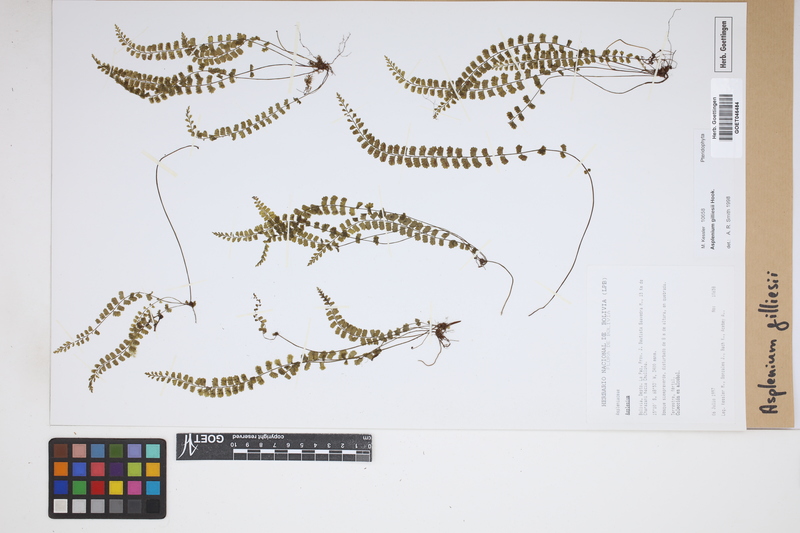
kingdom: Plantae
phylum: Tracheophyta
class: Polypodiopsida
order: Polypodiales
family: Aspleniaceae
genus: Asplenium
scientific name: Asplenium gilliesii
